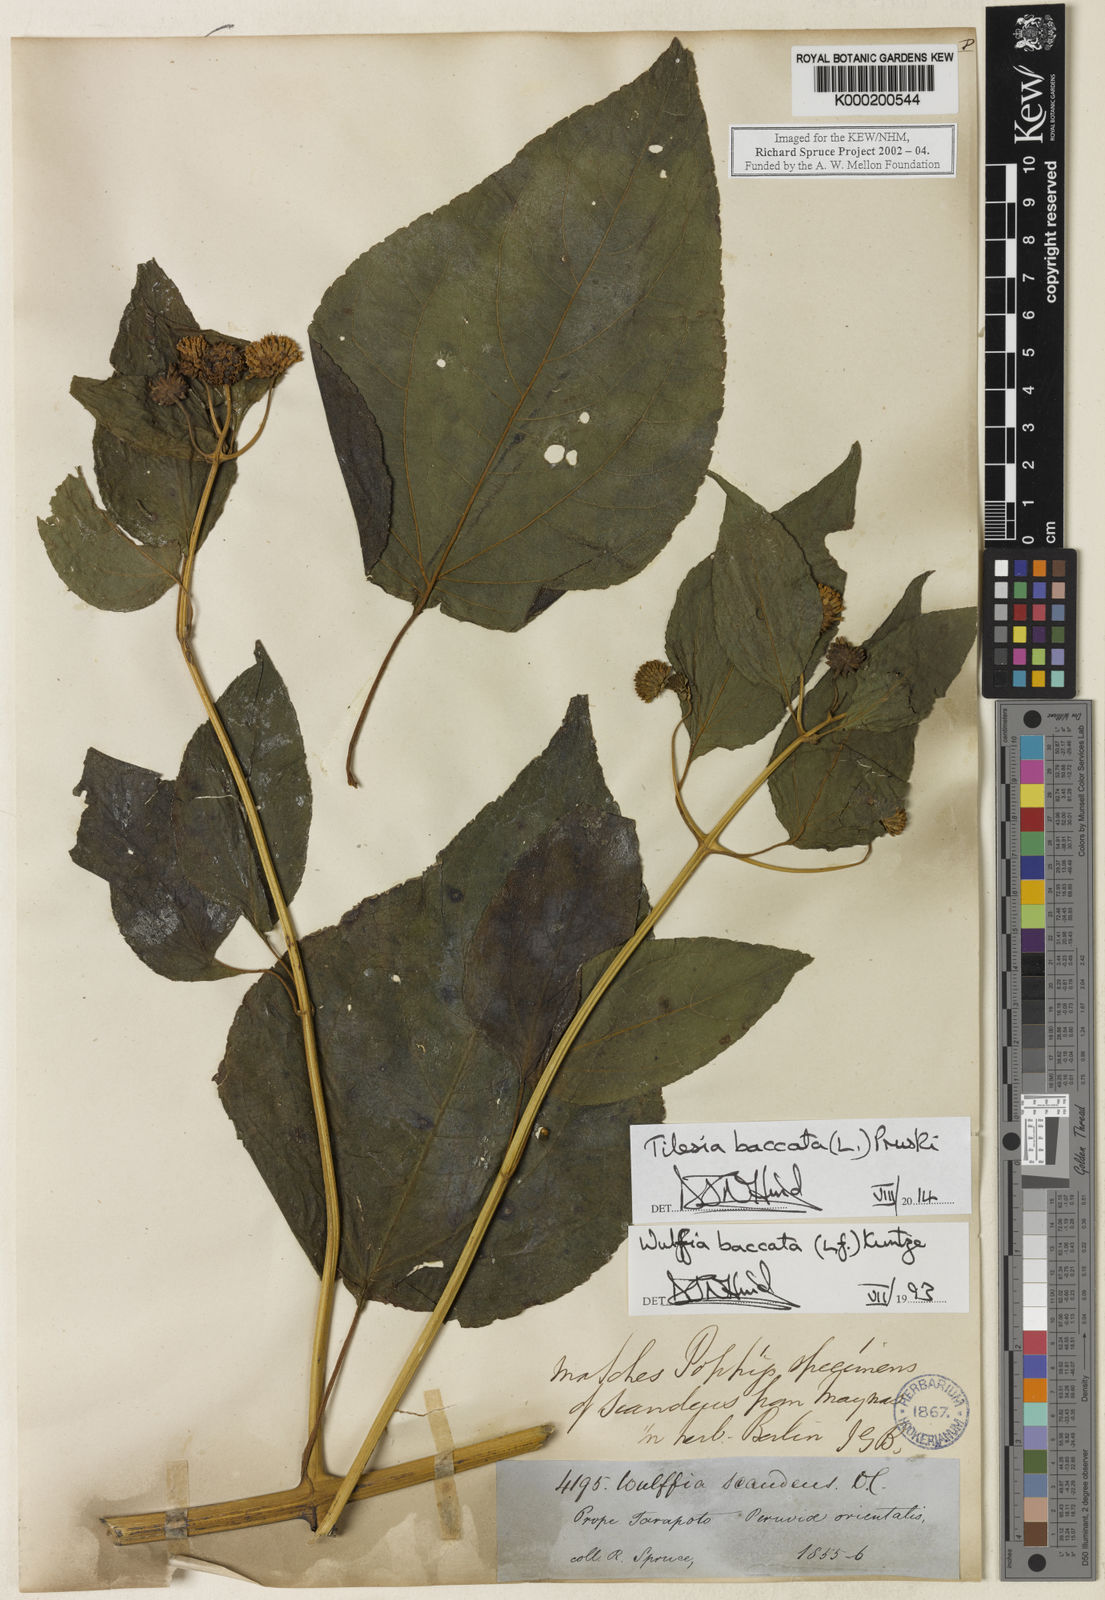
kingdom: Plantae
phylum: Tracheophyta
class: Magnoliopsida
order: Asterales
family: Asteraceae
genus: Tilesia
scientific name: Tilesia baccata
